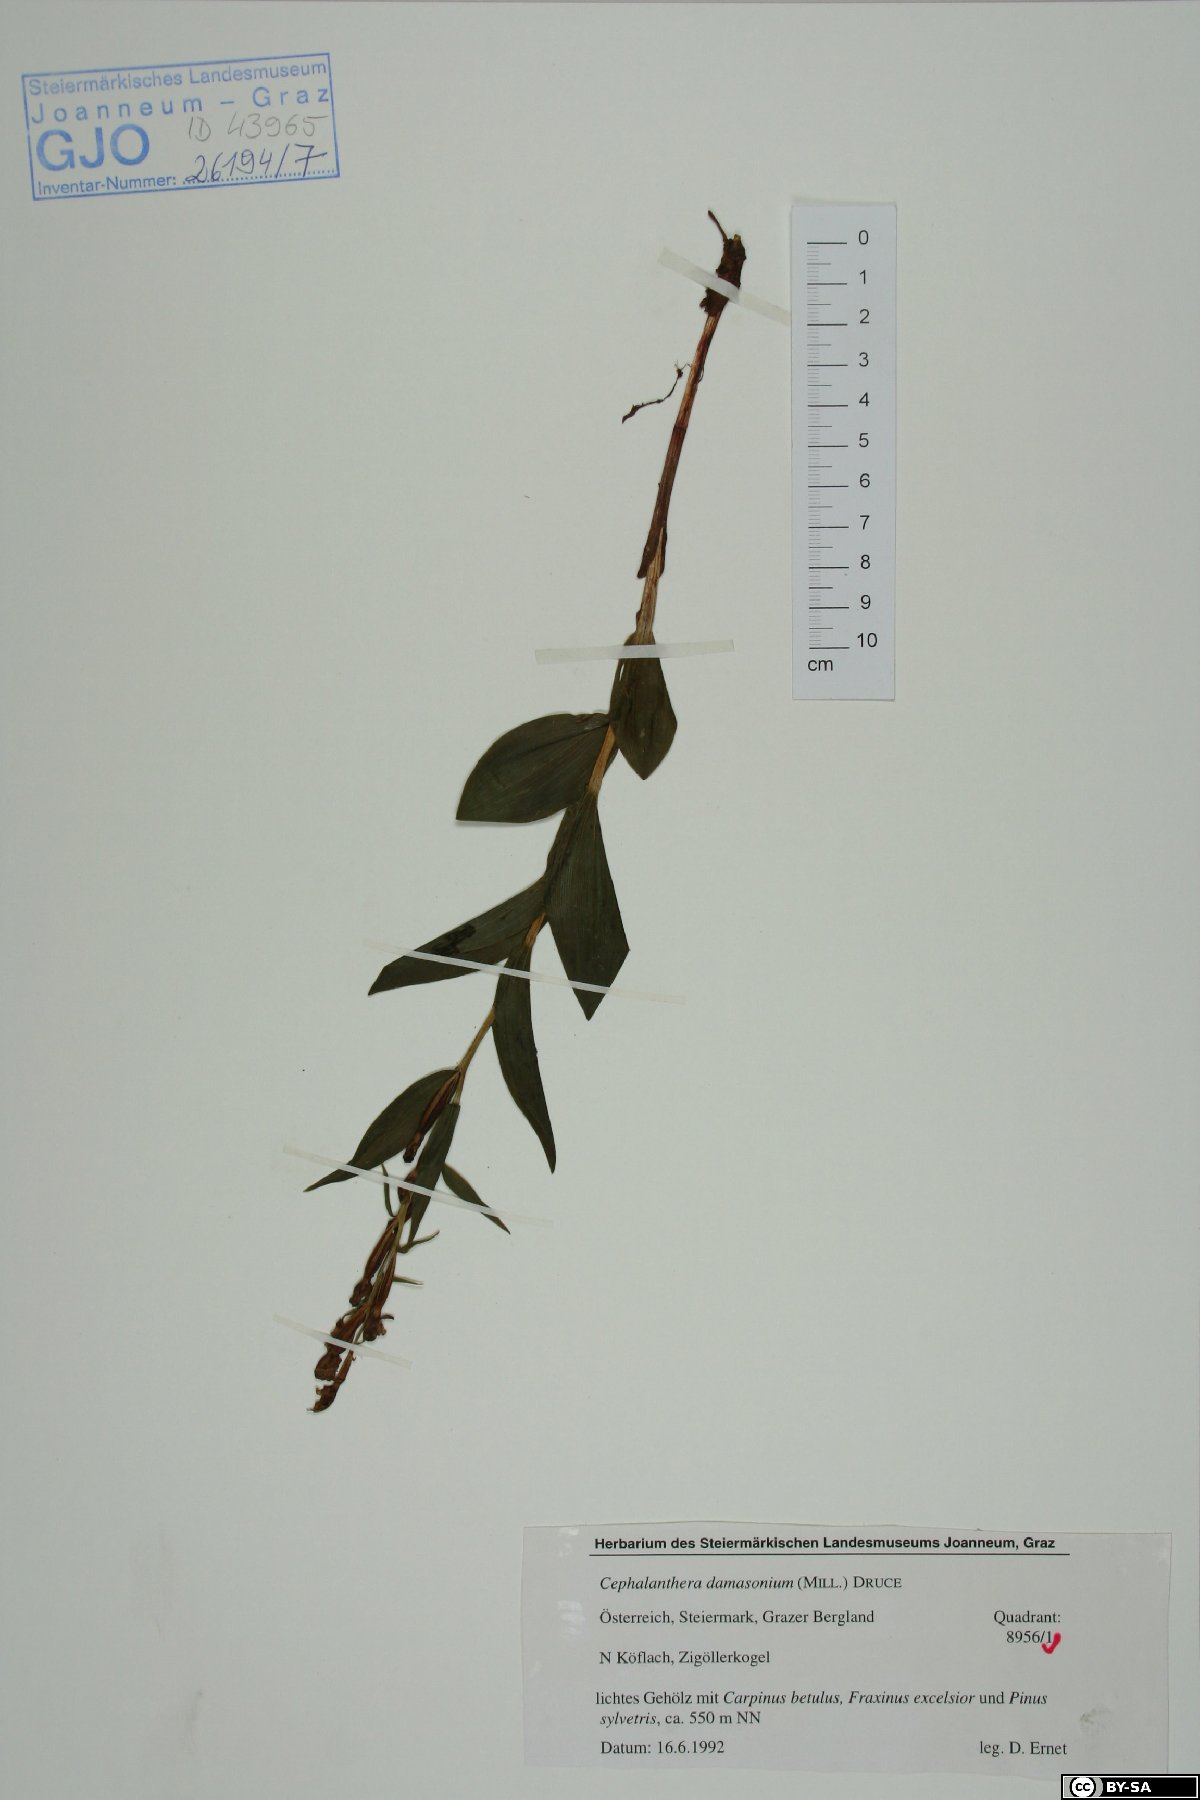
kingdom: Plantae
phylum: Tracheophyta
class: Liliopsida
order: Asparagales
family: Orchidaceae
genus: Cephalanthera
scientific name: Cephalanthera damasonium
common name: White helleborine
